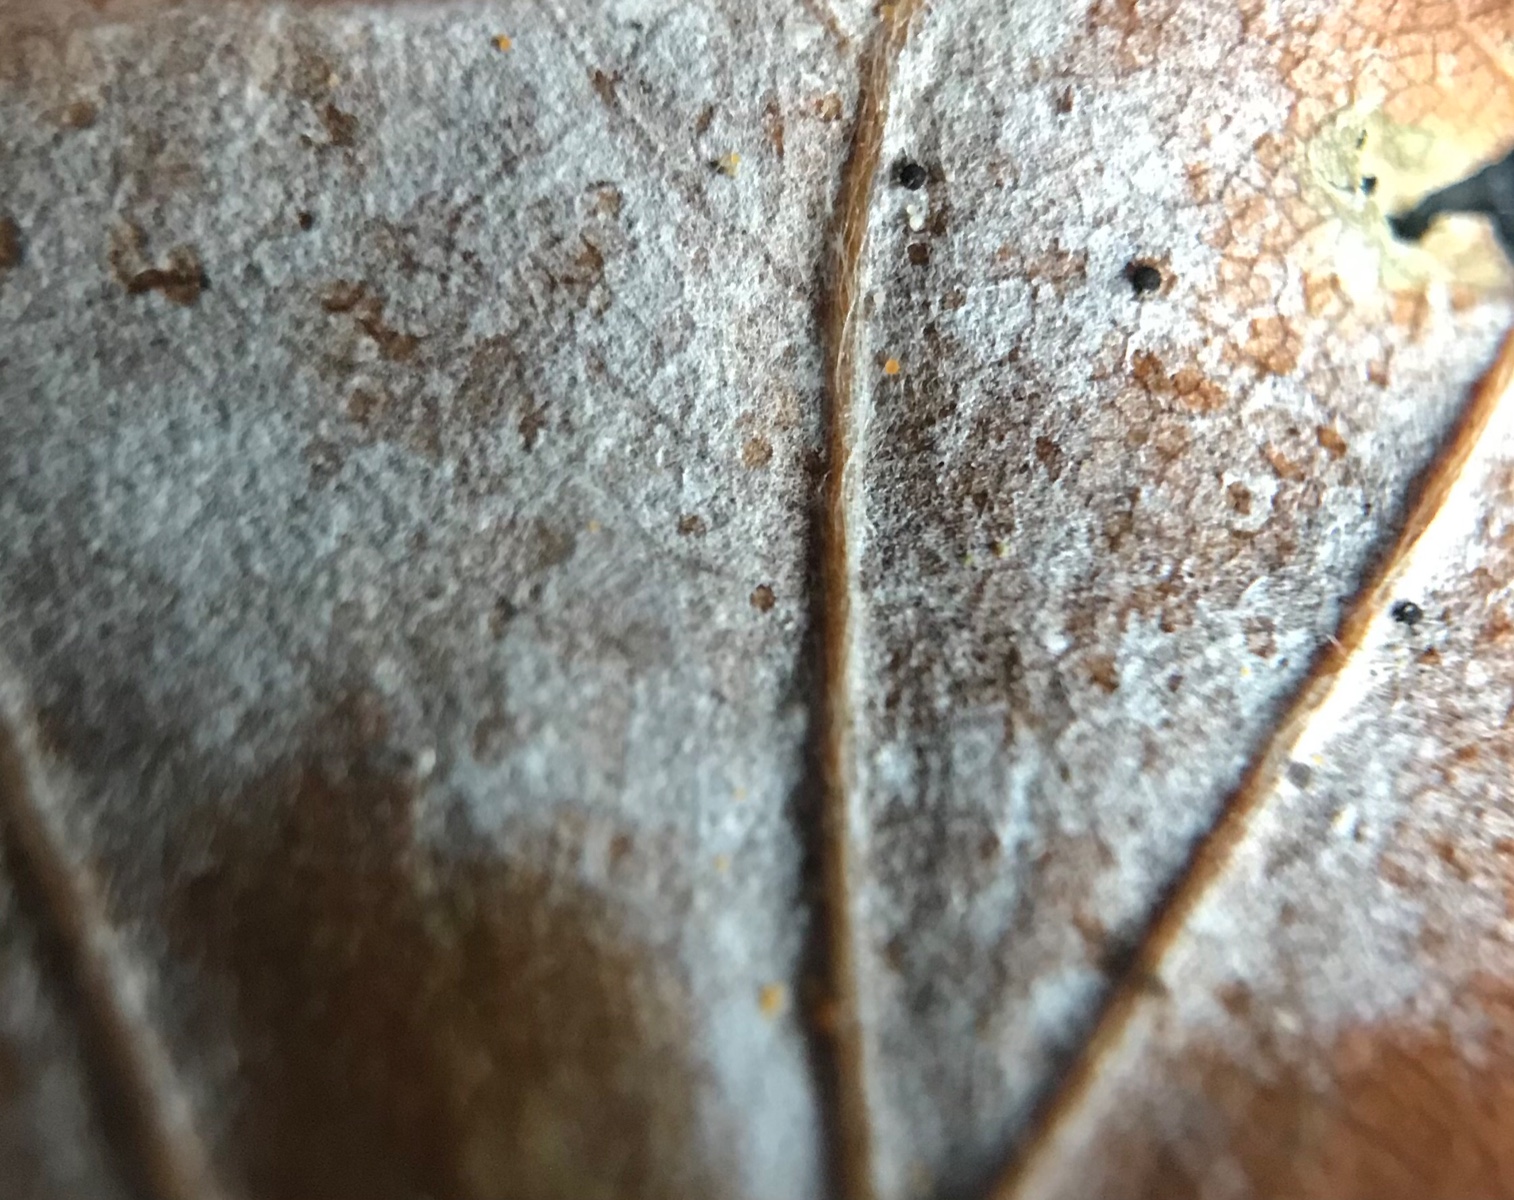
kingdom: Fungi
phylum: Ascomycota
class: Leotiomycetes
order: Helotiales
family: Erysiphaceae
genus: Phyllactinia
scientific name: Phyllactinia orbicularis
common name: bøge-meldug
